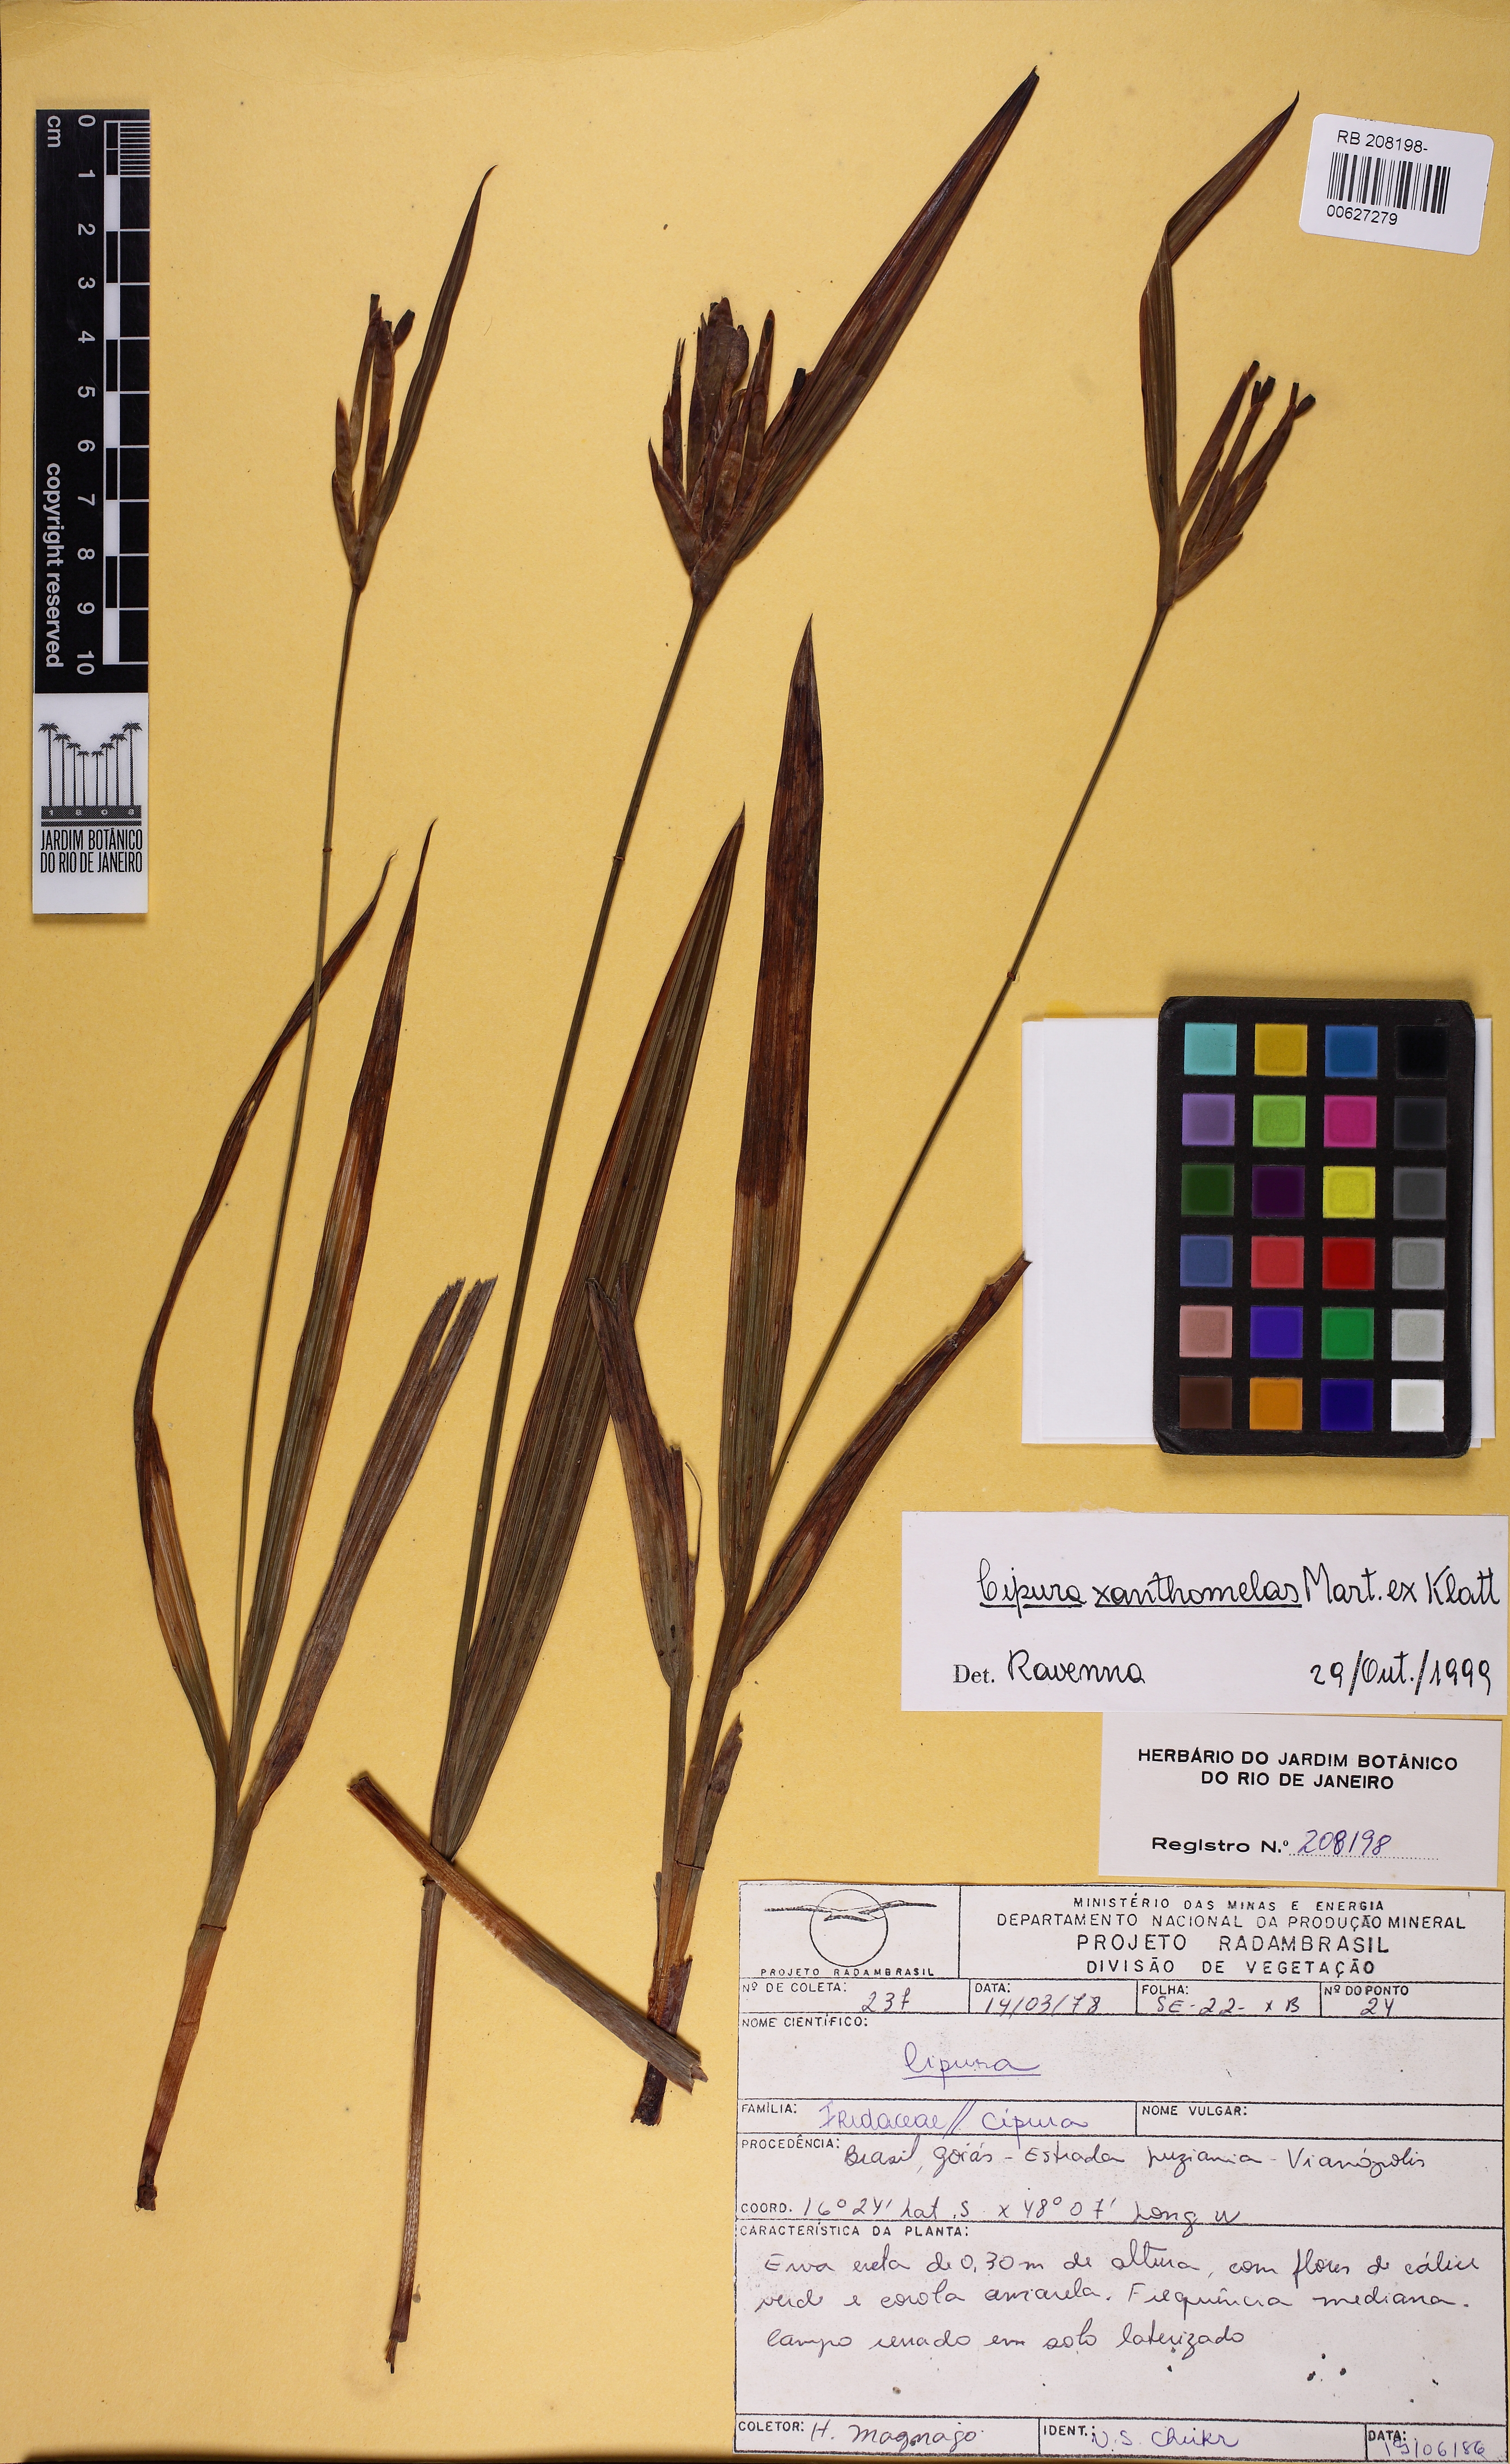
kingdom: Plantae
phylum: Tracheophyta
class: Liliopsida
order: Asparagales
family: Iridaceae
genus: Cipura
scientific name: Cipura xanthomelas
